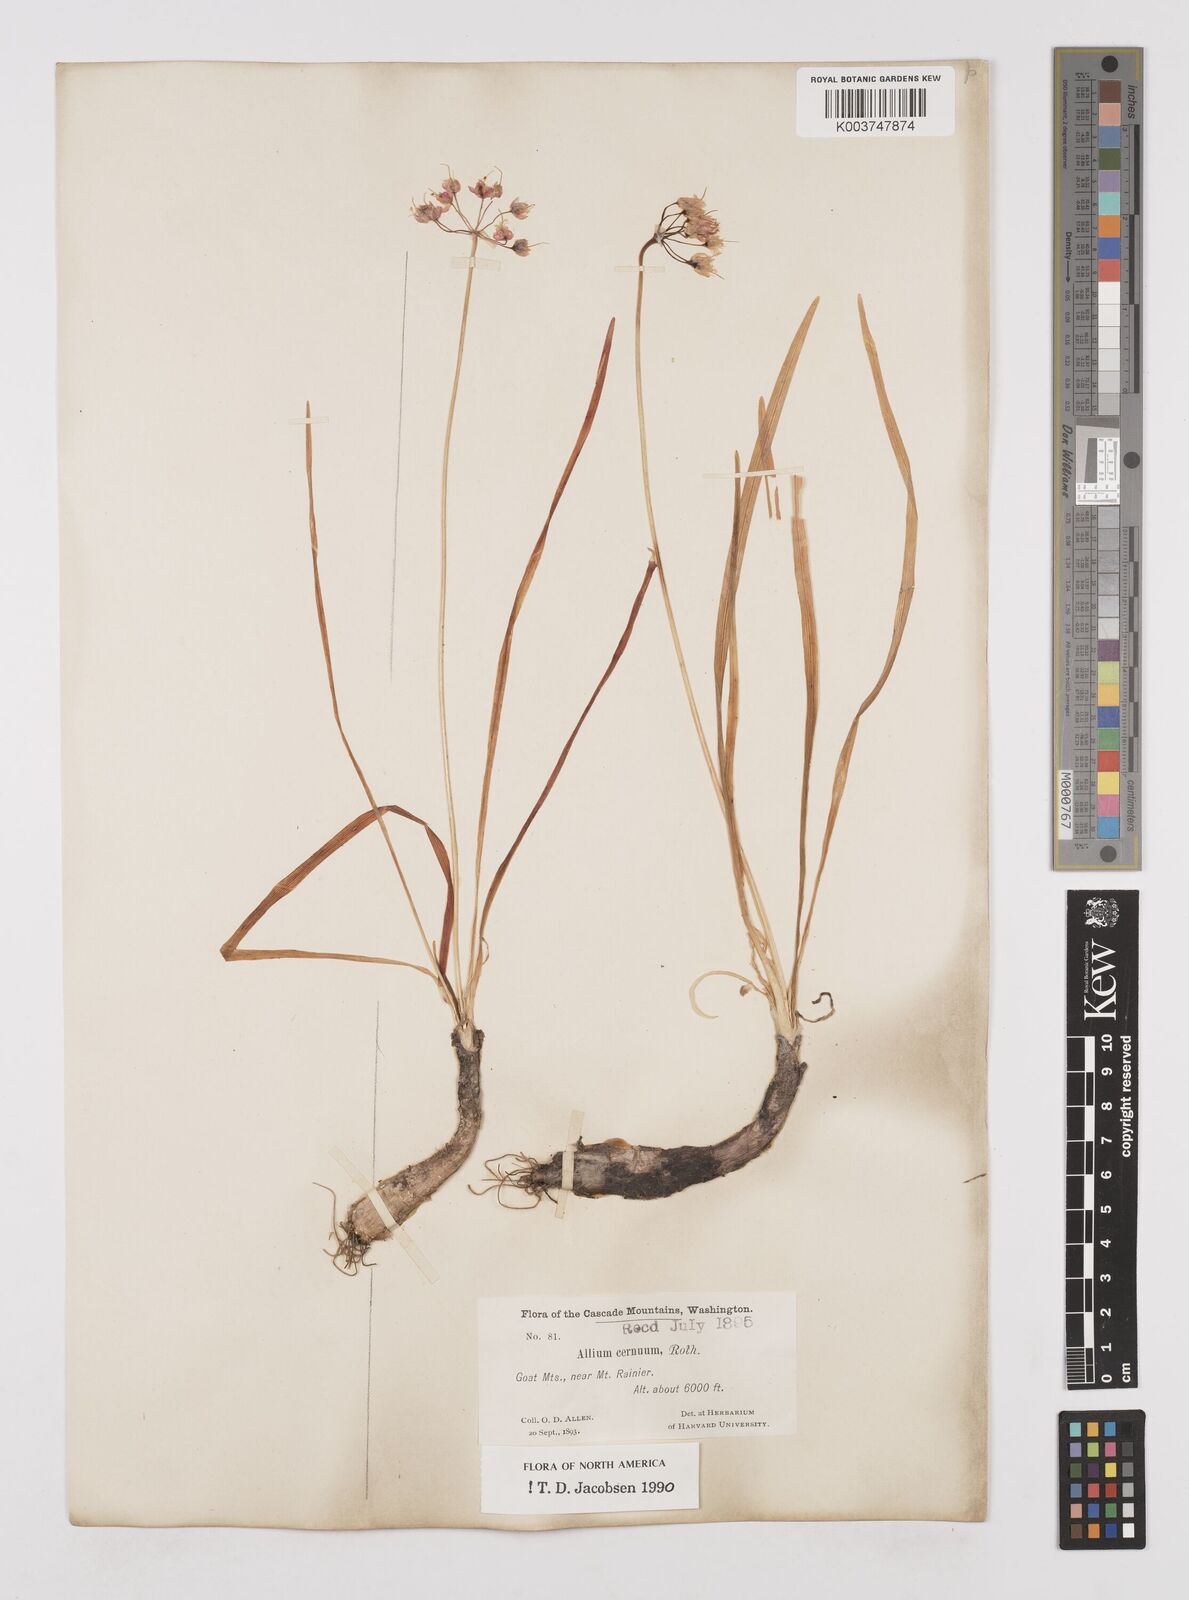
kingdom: Plantae
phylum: Tracheophyta
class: Liliopsida
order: Asparagales
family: Amaryllidaceae
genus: Allium
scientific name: Allium cernuum
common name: Nodding onion
